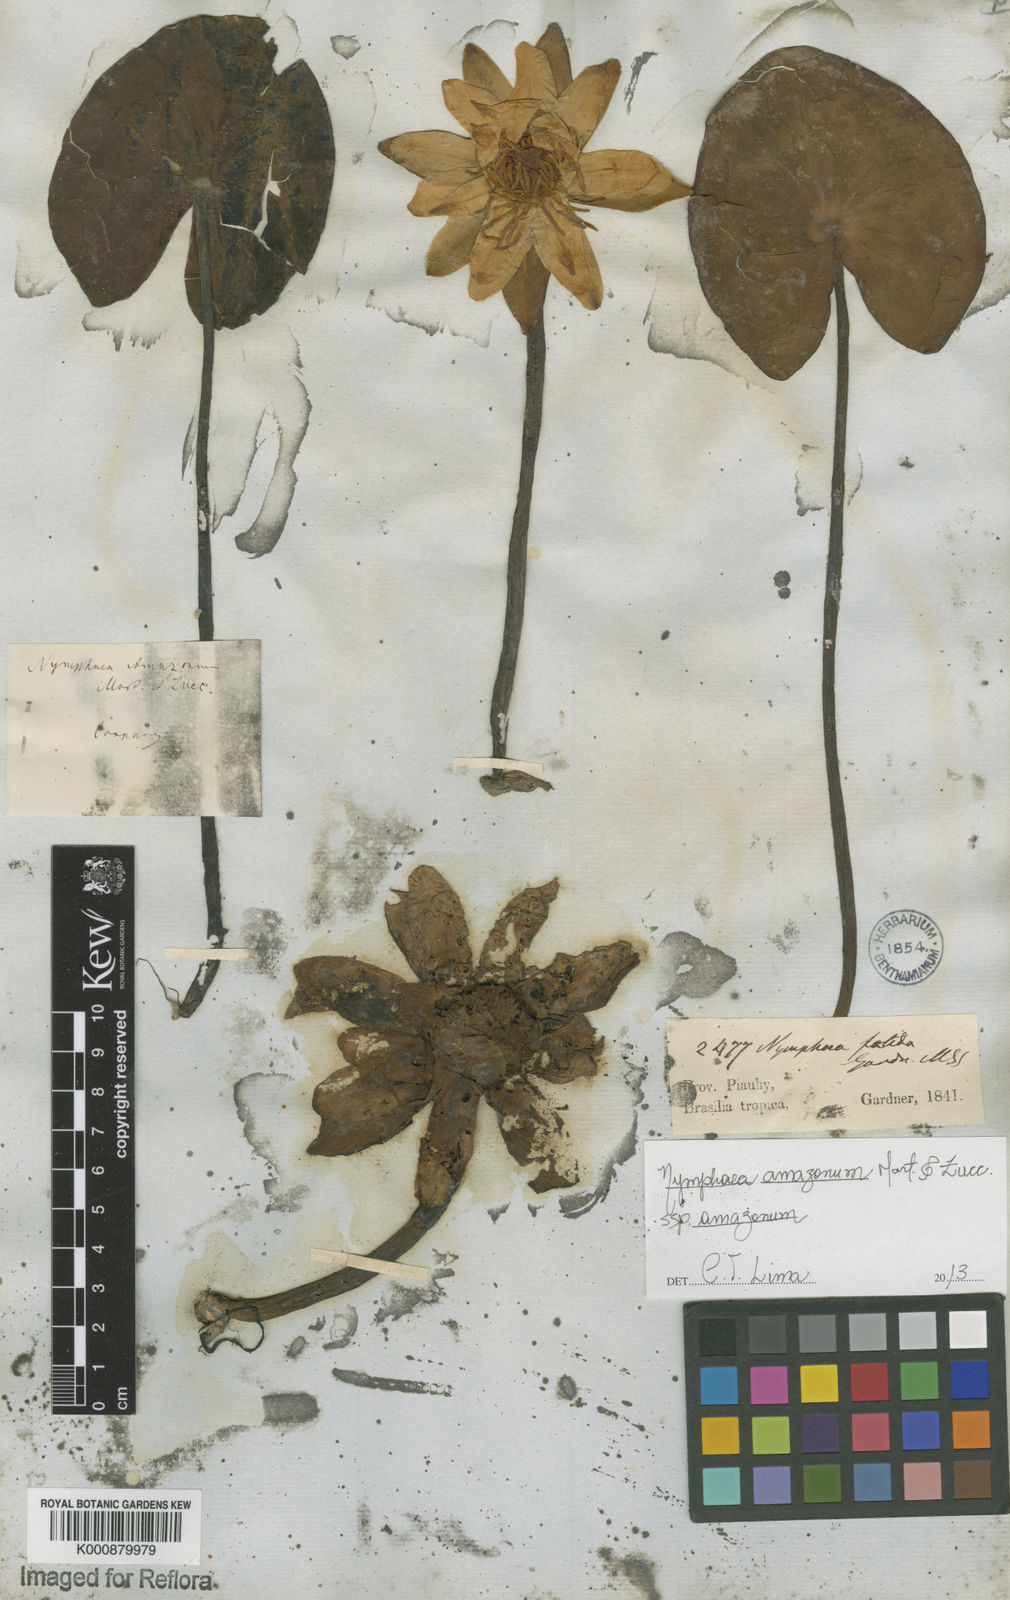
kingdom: Plantae
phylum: Tracheophyta
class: Magnoliopsida
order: Nymphaeales
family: Nymphaeaceae
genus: Nymphaea
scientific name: Nymphaea amazonum
